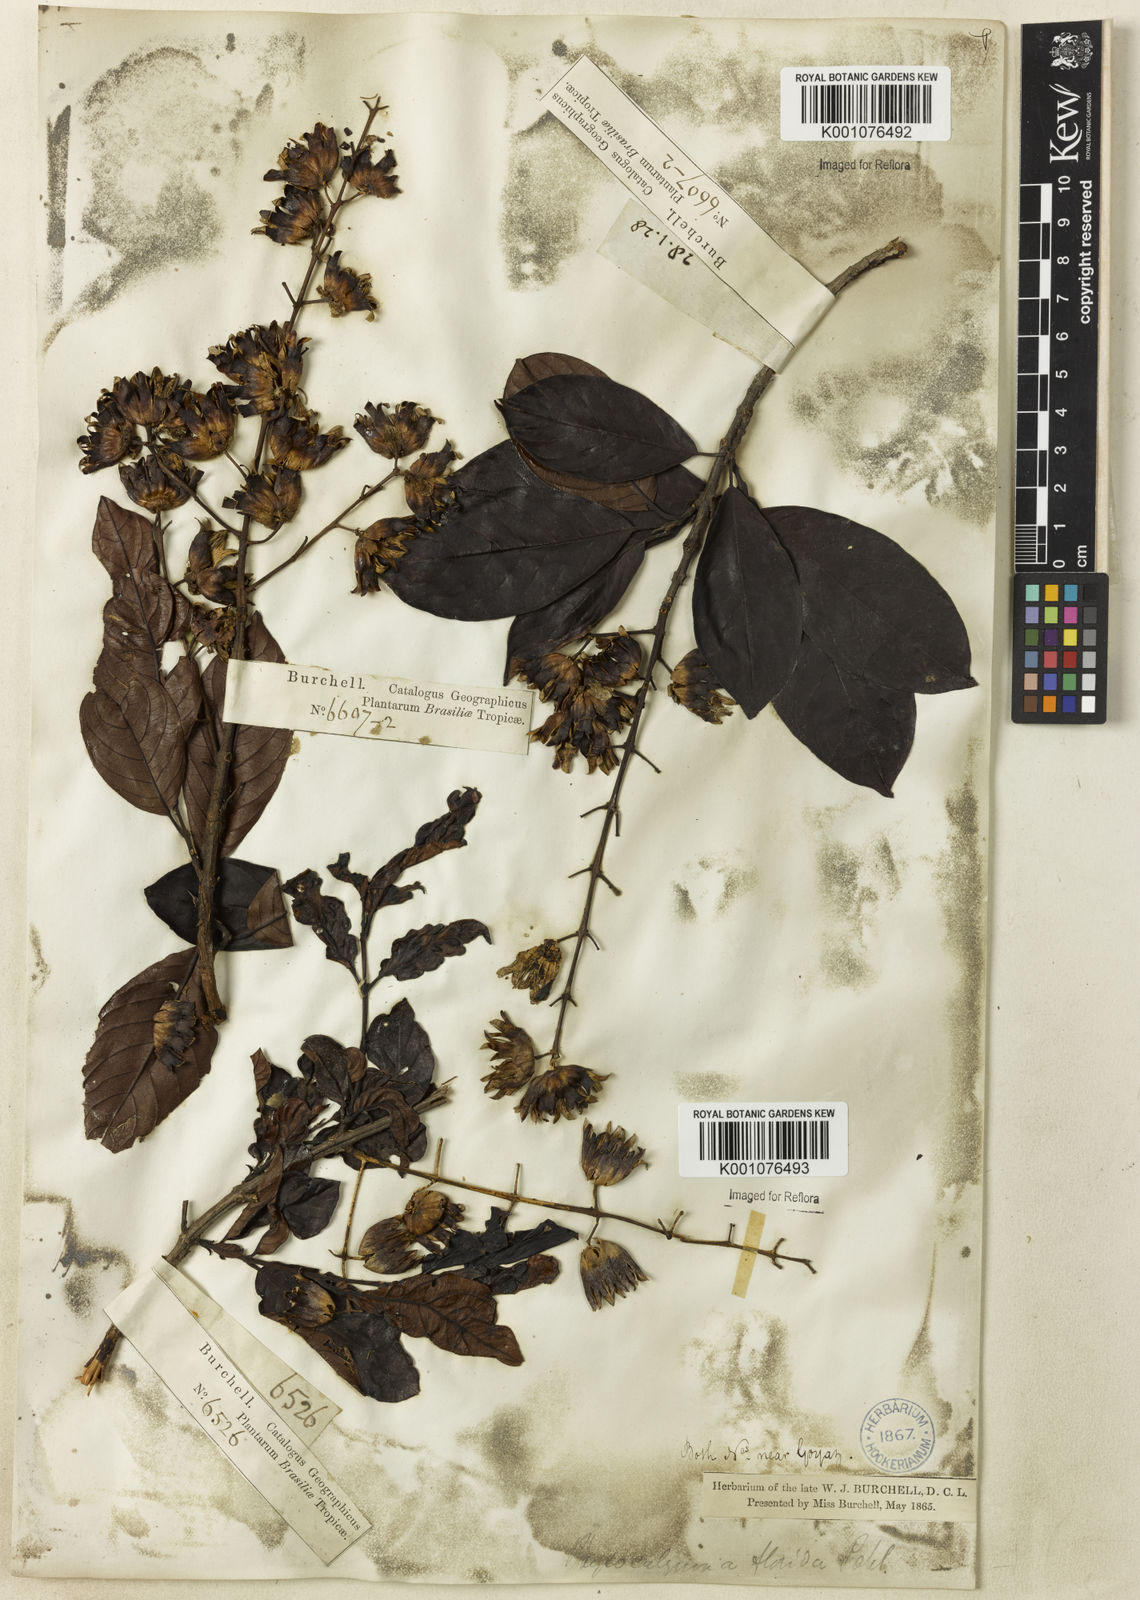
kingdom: Plantae
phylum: Tracheophyta
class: Magnoliopsida
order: Myrtales
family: Lythraceae
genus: Physocalymma
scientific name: Physocalymma scaberrimum
